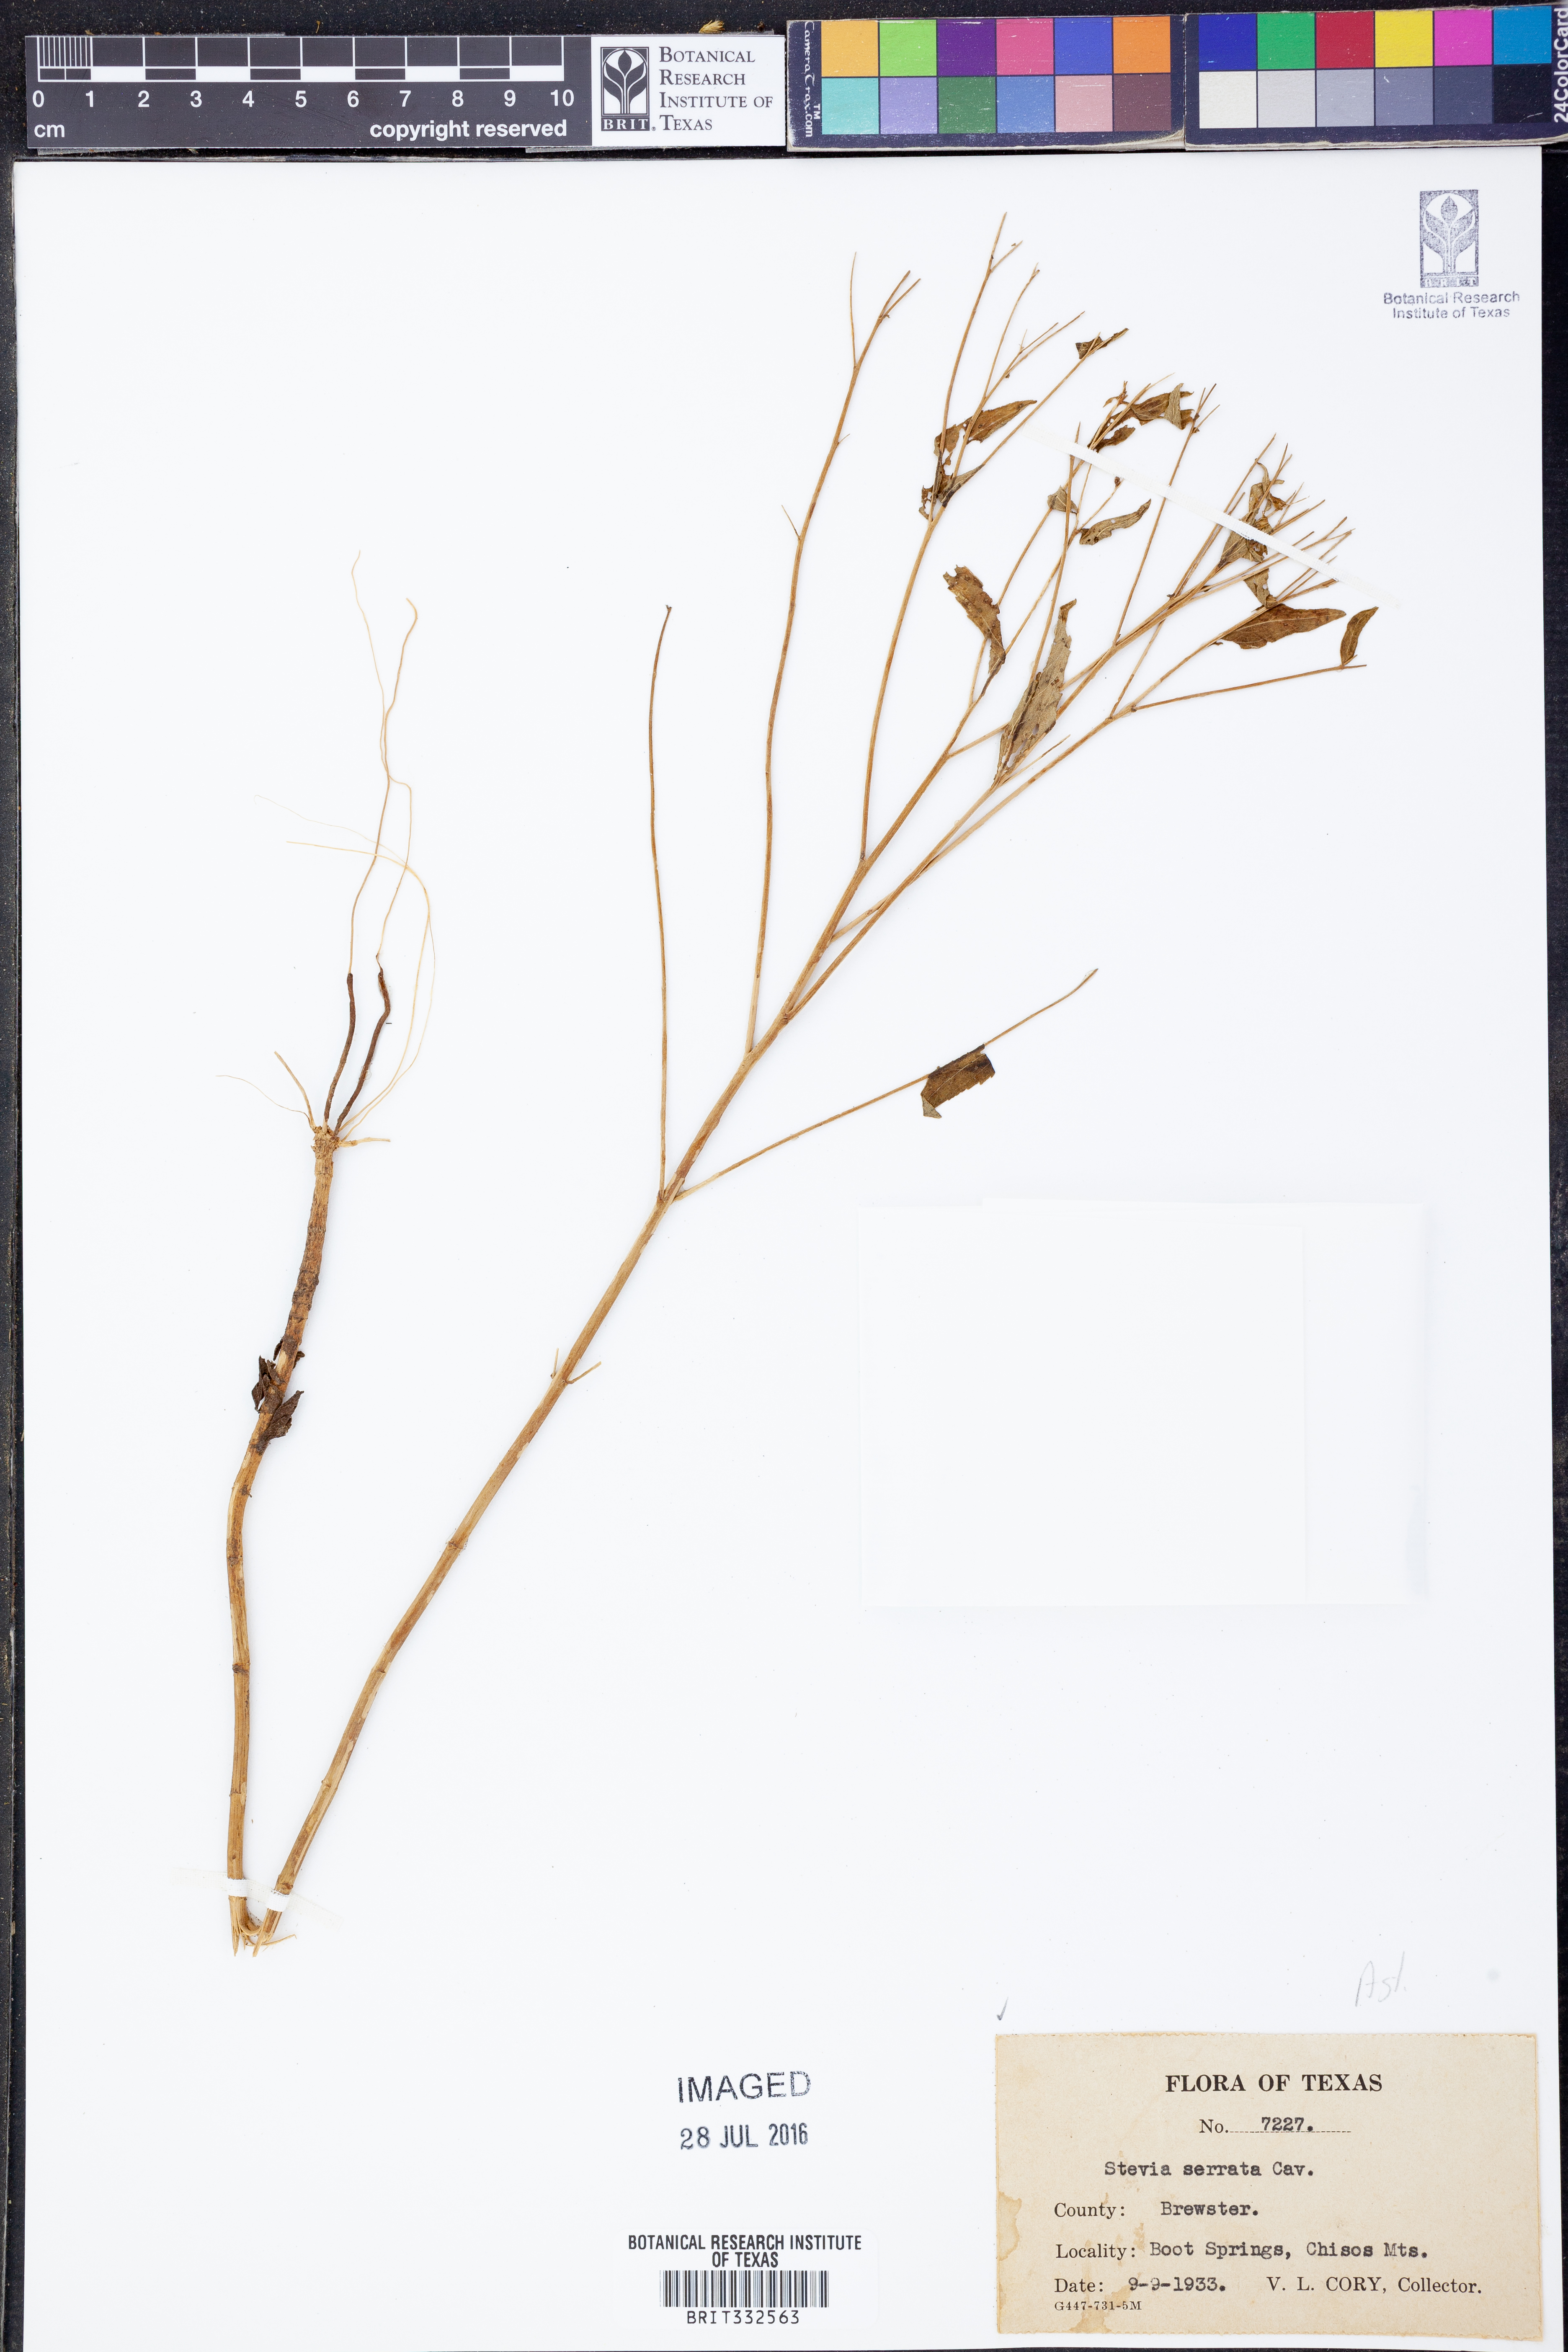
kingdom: Plantae
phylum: Tracheophyta
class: Magnoliopsida
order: Asterales
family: Asteraceae
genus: Stevia
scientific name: Stevia serrata
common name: Sawtooth candyleaf
